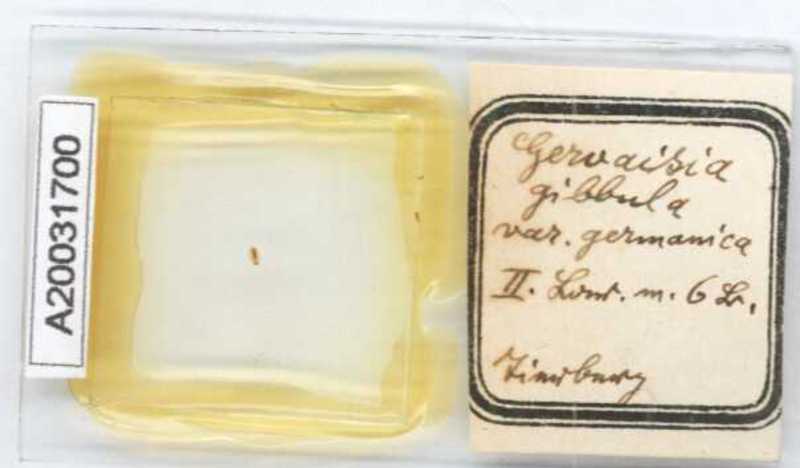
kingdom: Animalia
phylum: Arthropoda
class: Diplopoda
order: Glomerida
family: Glomeridae
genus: Trachysphaera
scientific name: Trachysphaera gibbula
